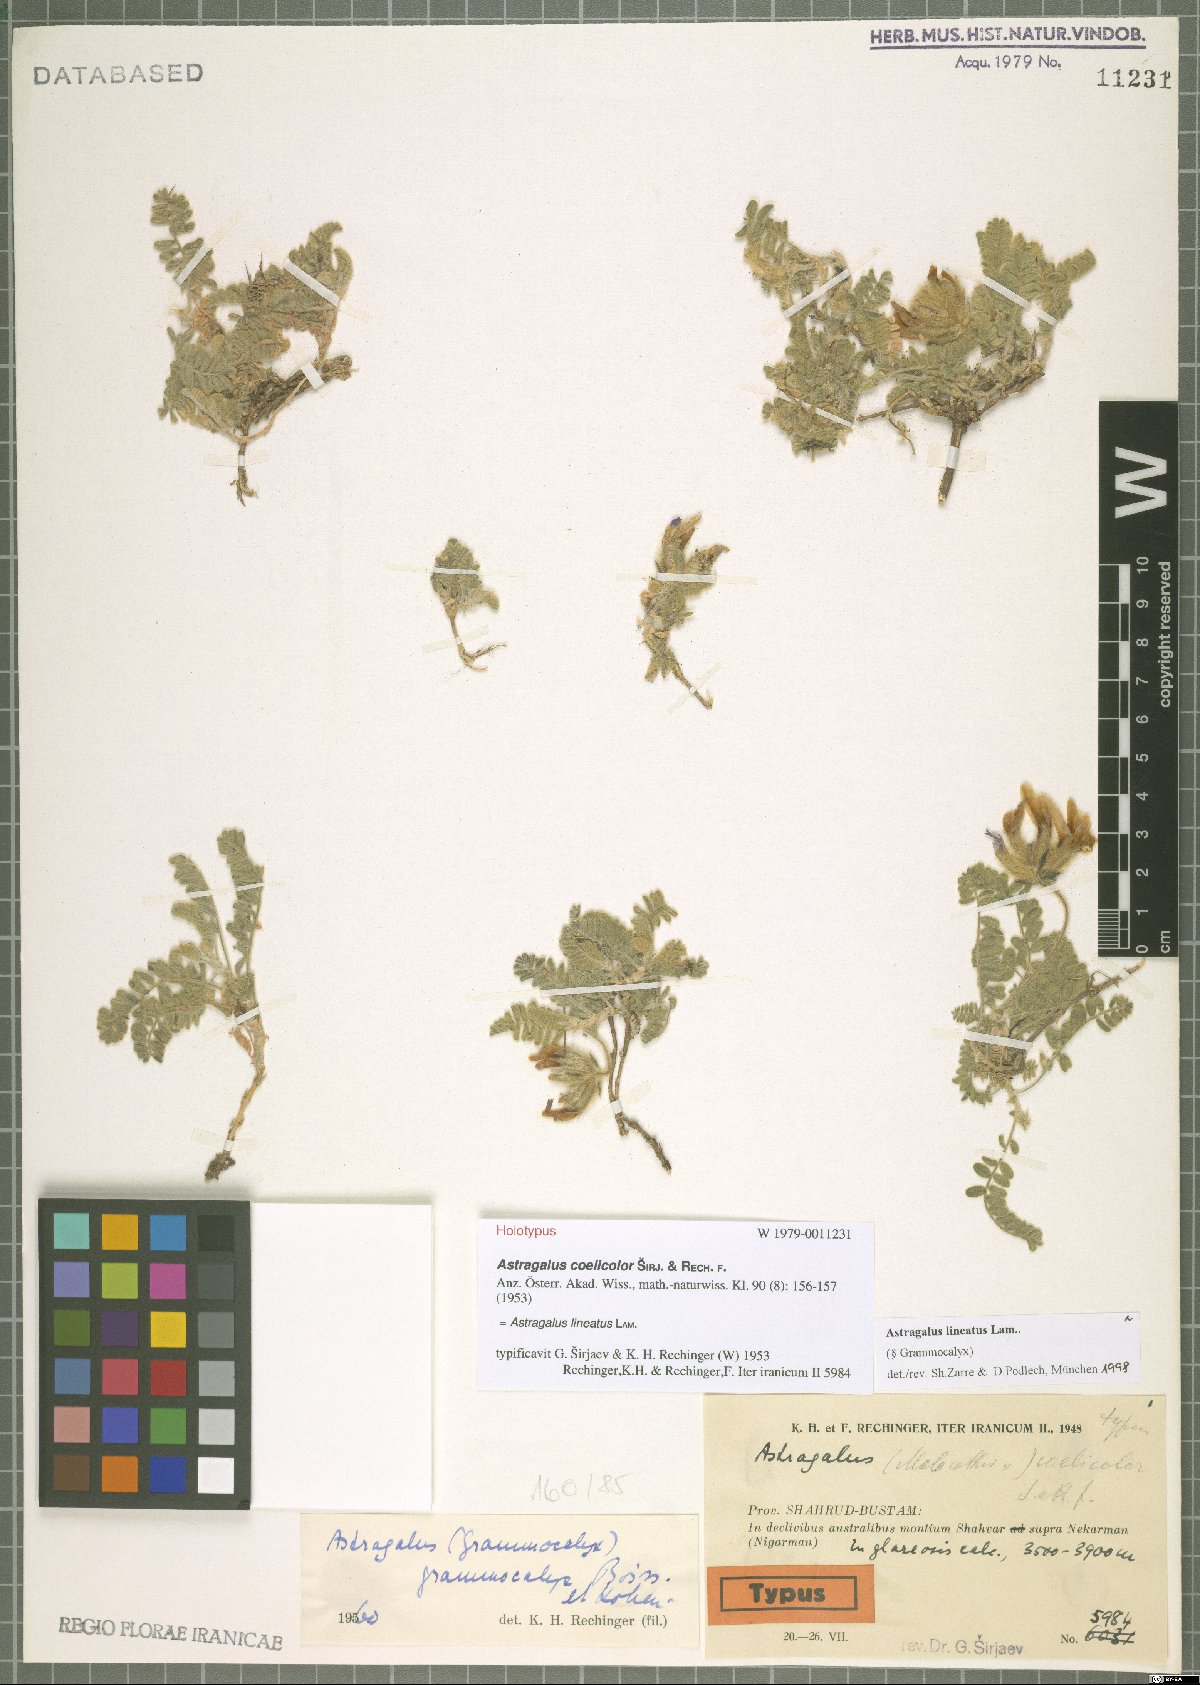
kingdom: Plantae
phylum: Tracheophyta
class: Magnoliopsida
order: Fabales
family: Fabaceae
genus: Astragalus
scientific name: Astragalus lineatus
